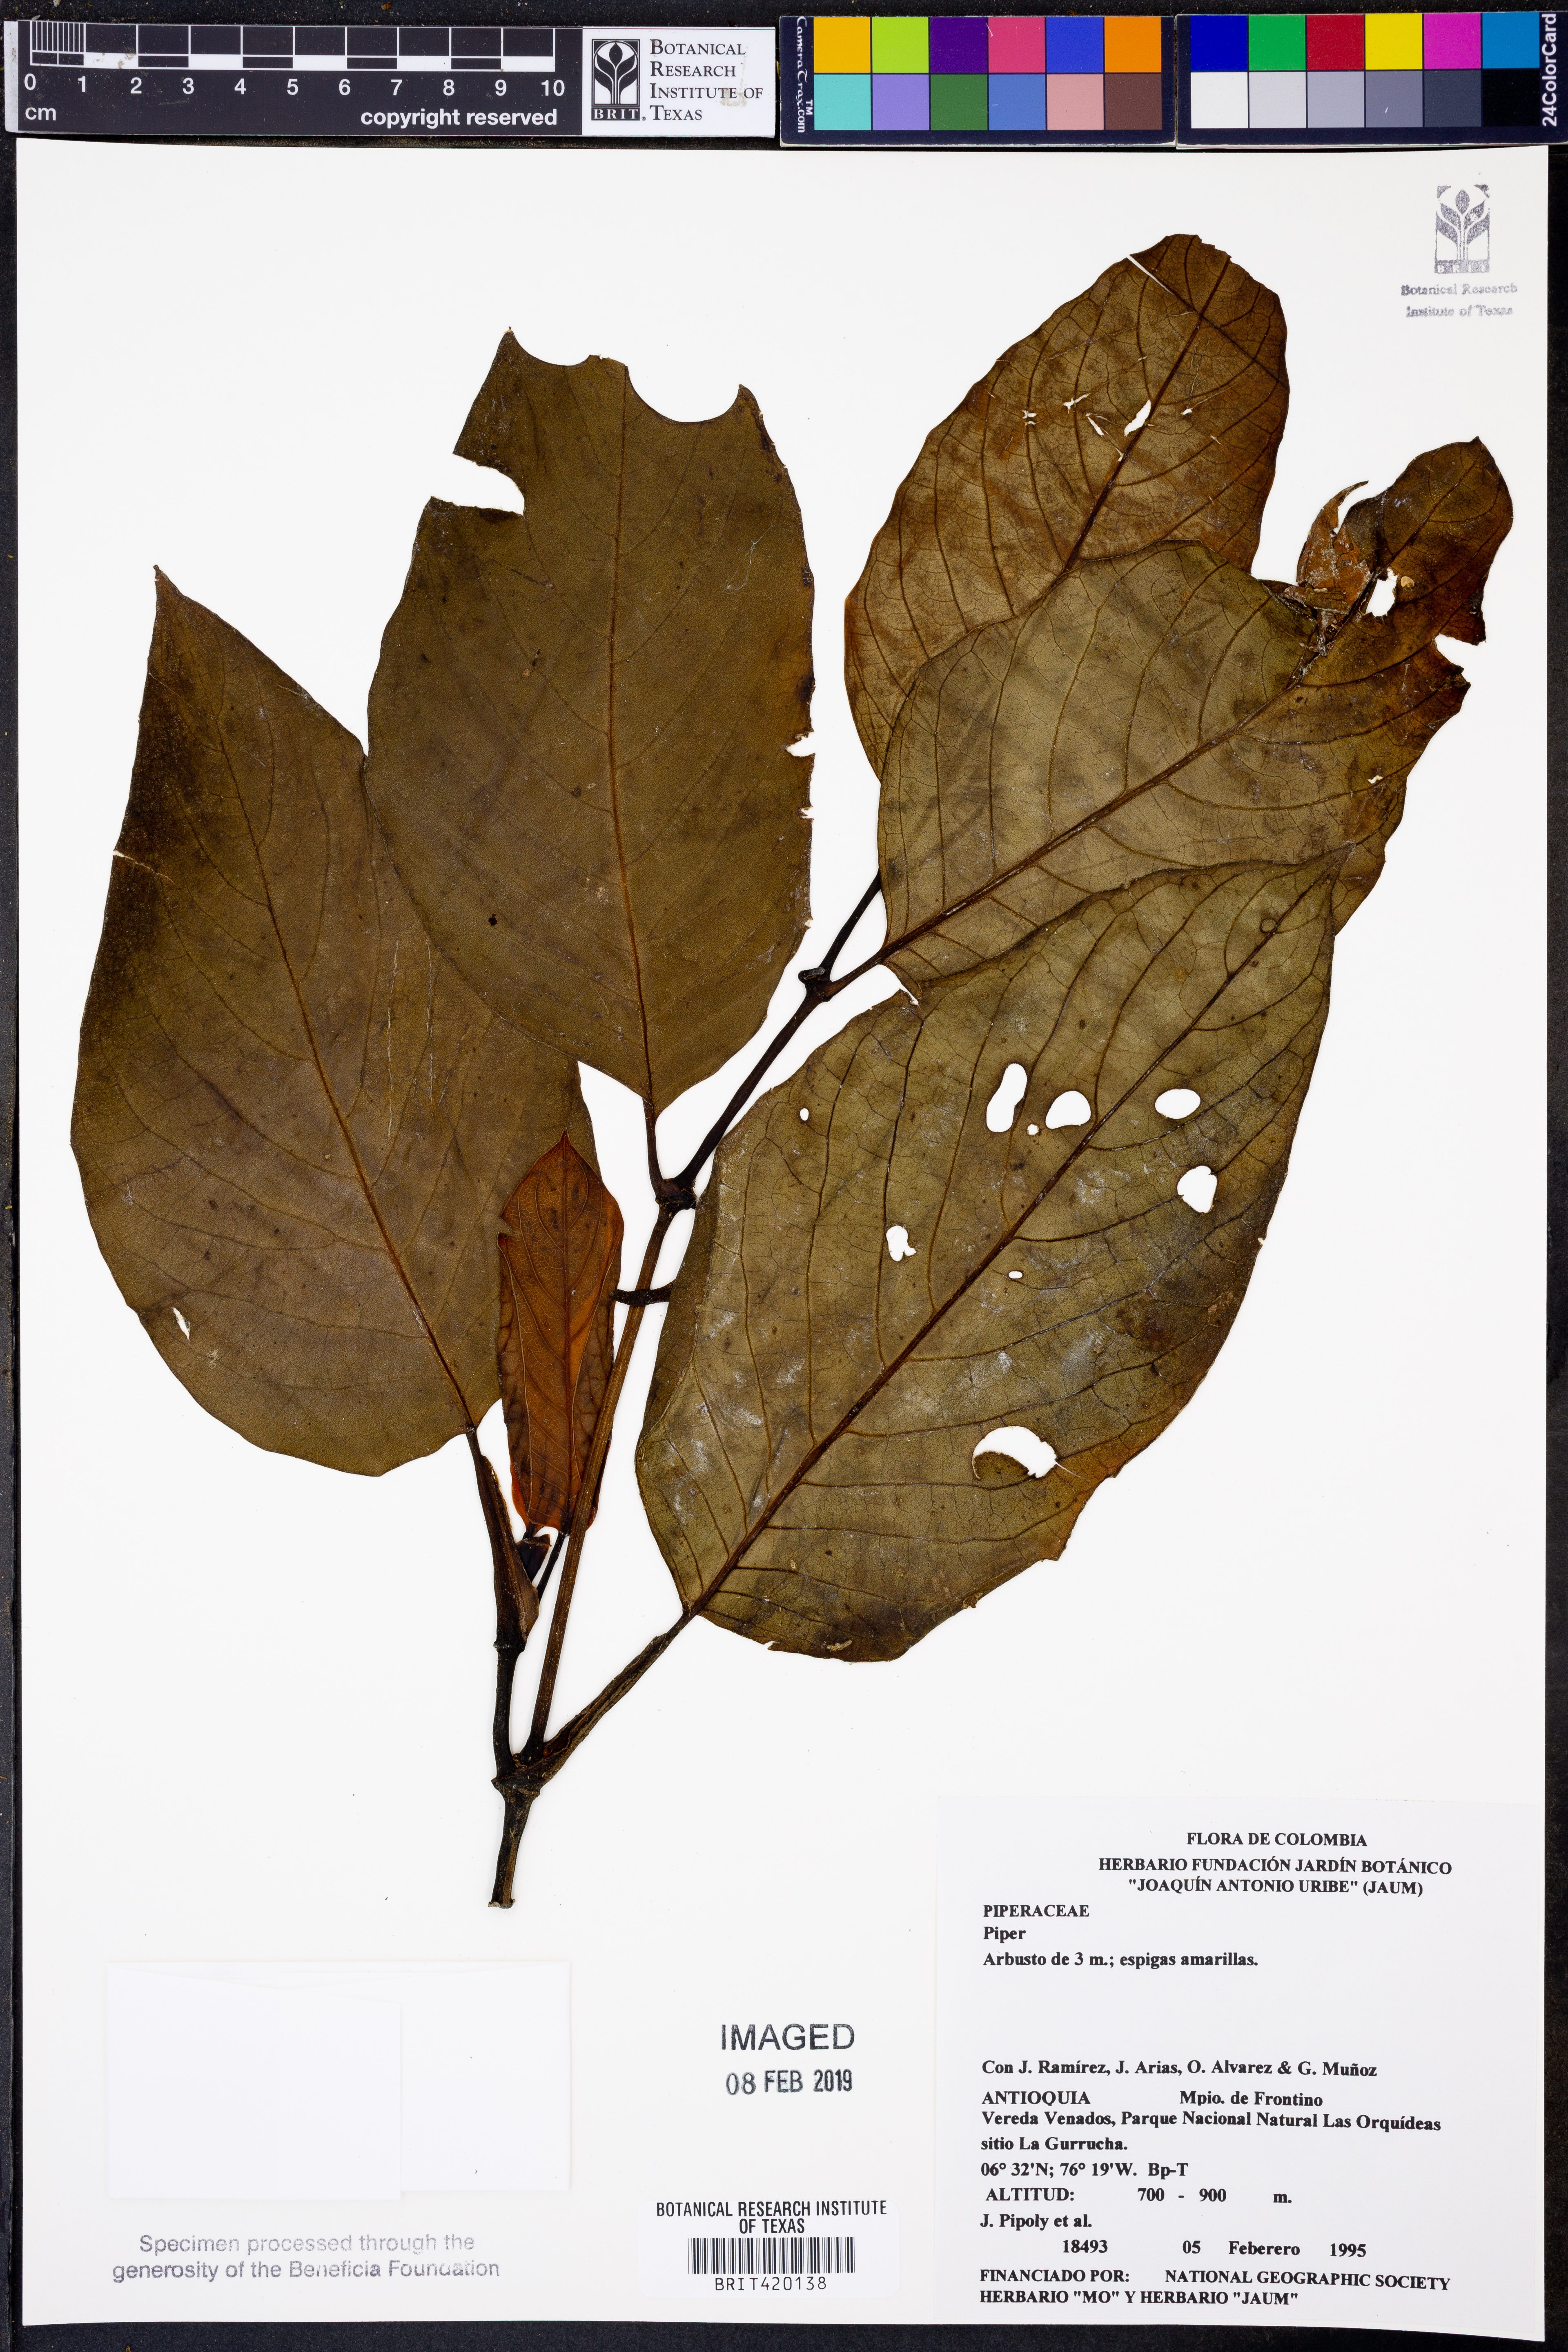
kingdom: Plantae
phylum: Tracheophyta
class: Magnoliopsida
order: Piperales
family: Piperaceae
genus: Piper
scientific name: Piper
